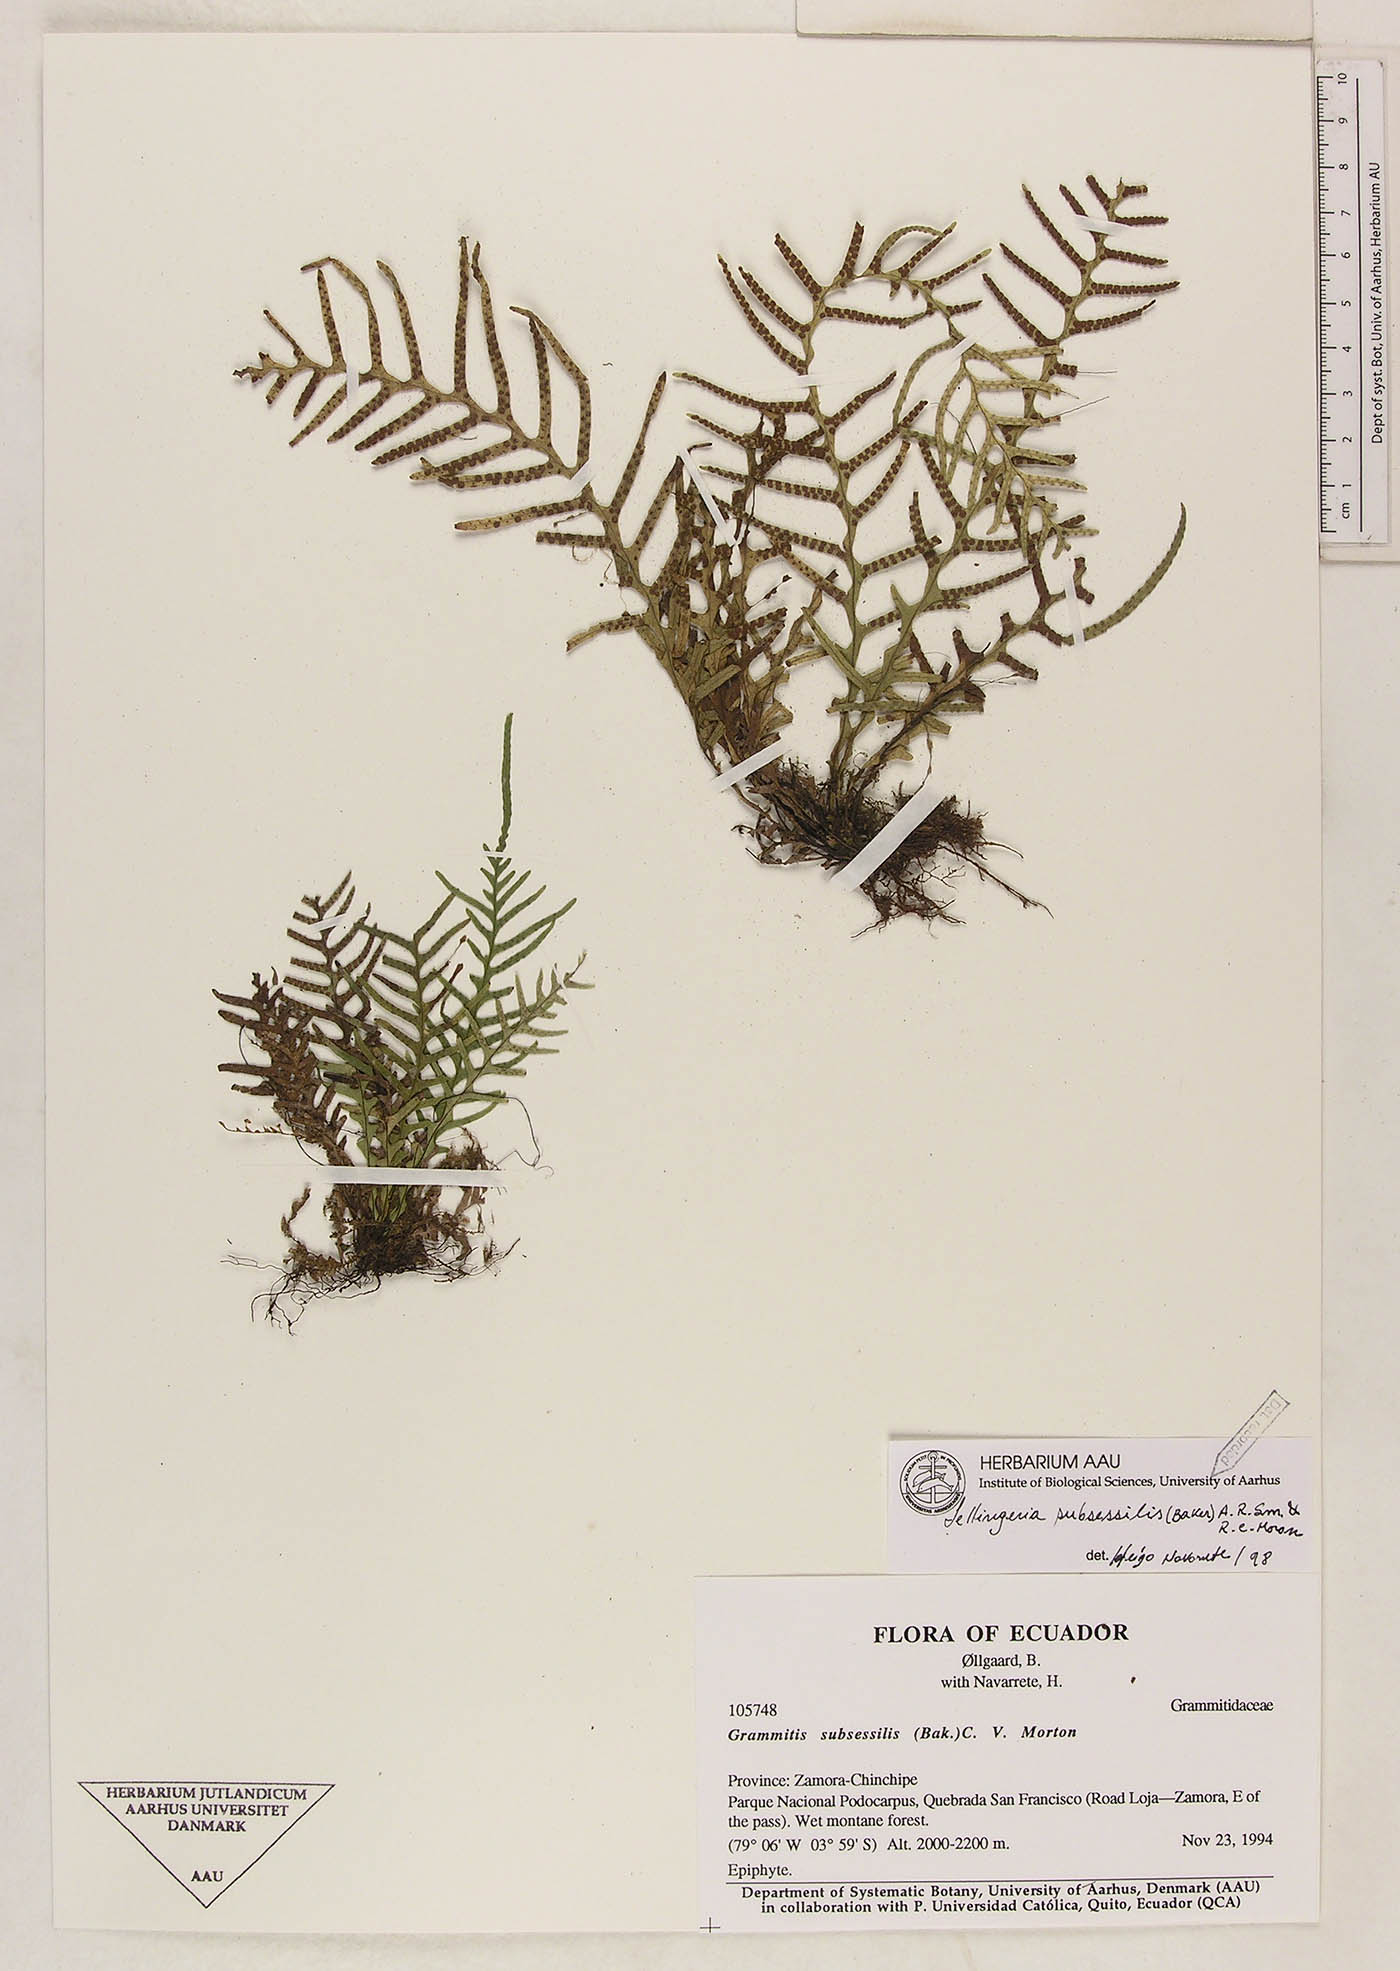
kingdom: Plantae
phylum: Tracheophyta
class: Polypodiopsida
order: Polypodiales
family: Polypodiaceae
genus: Lellingeria
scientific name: Lellingeria subsessilis
